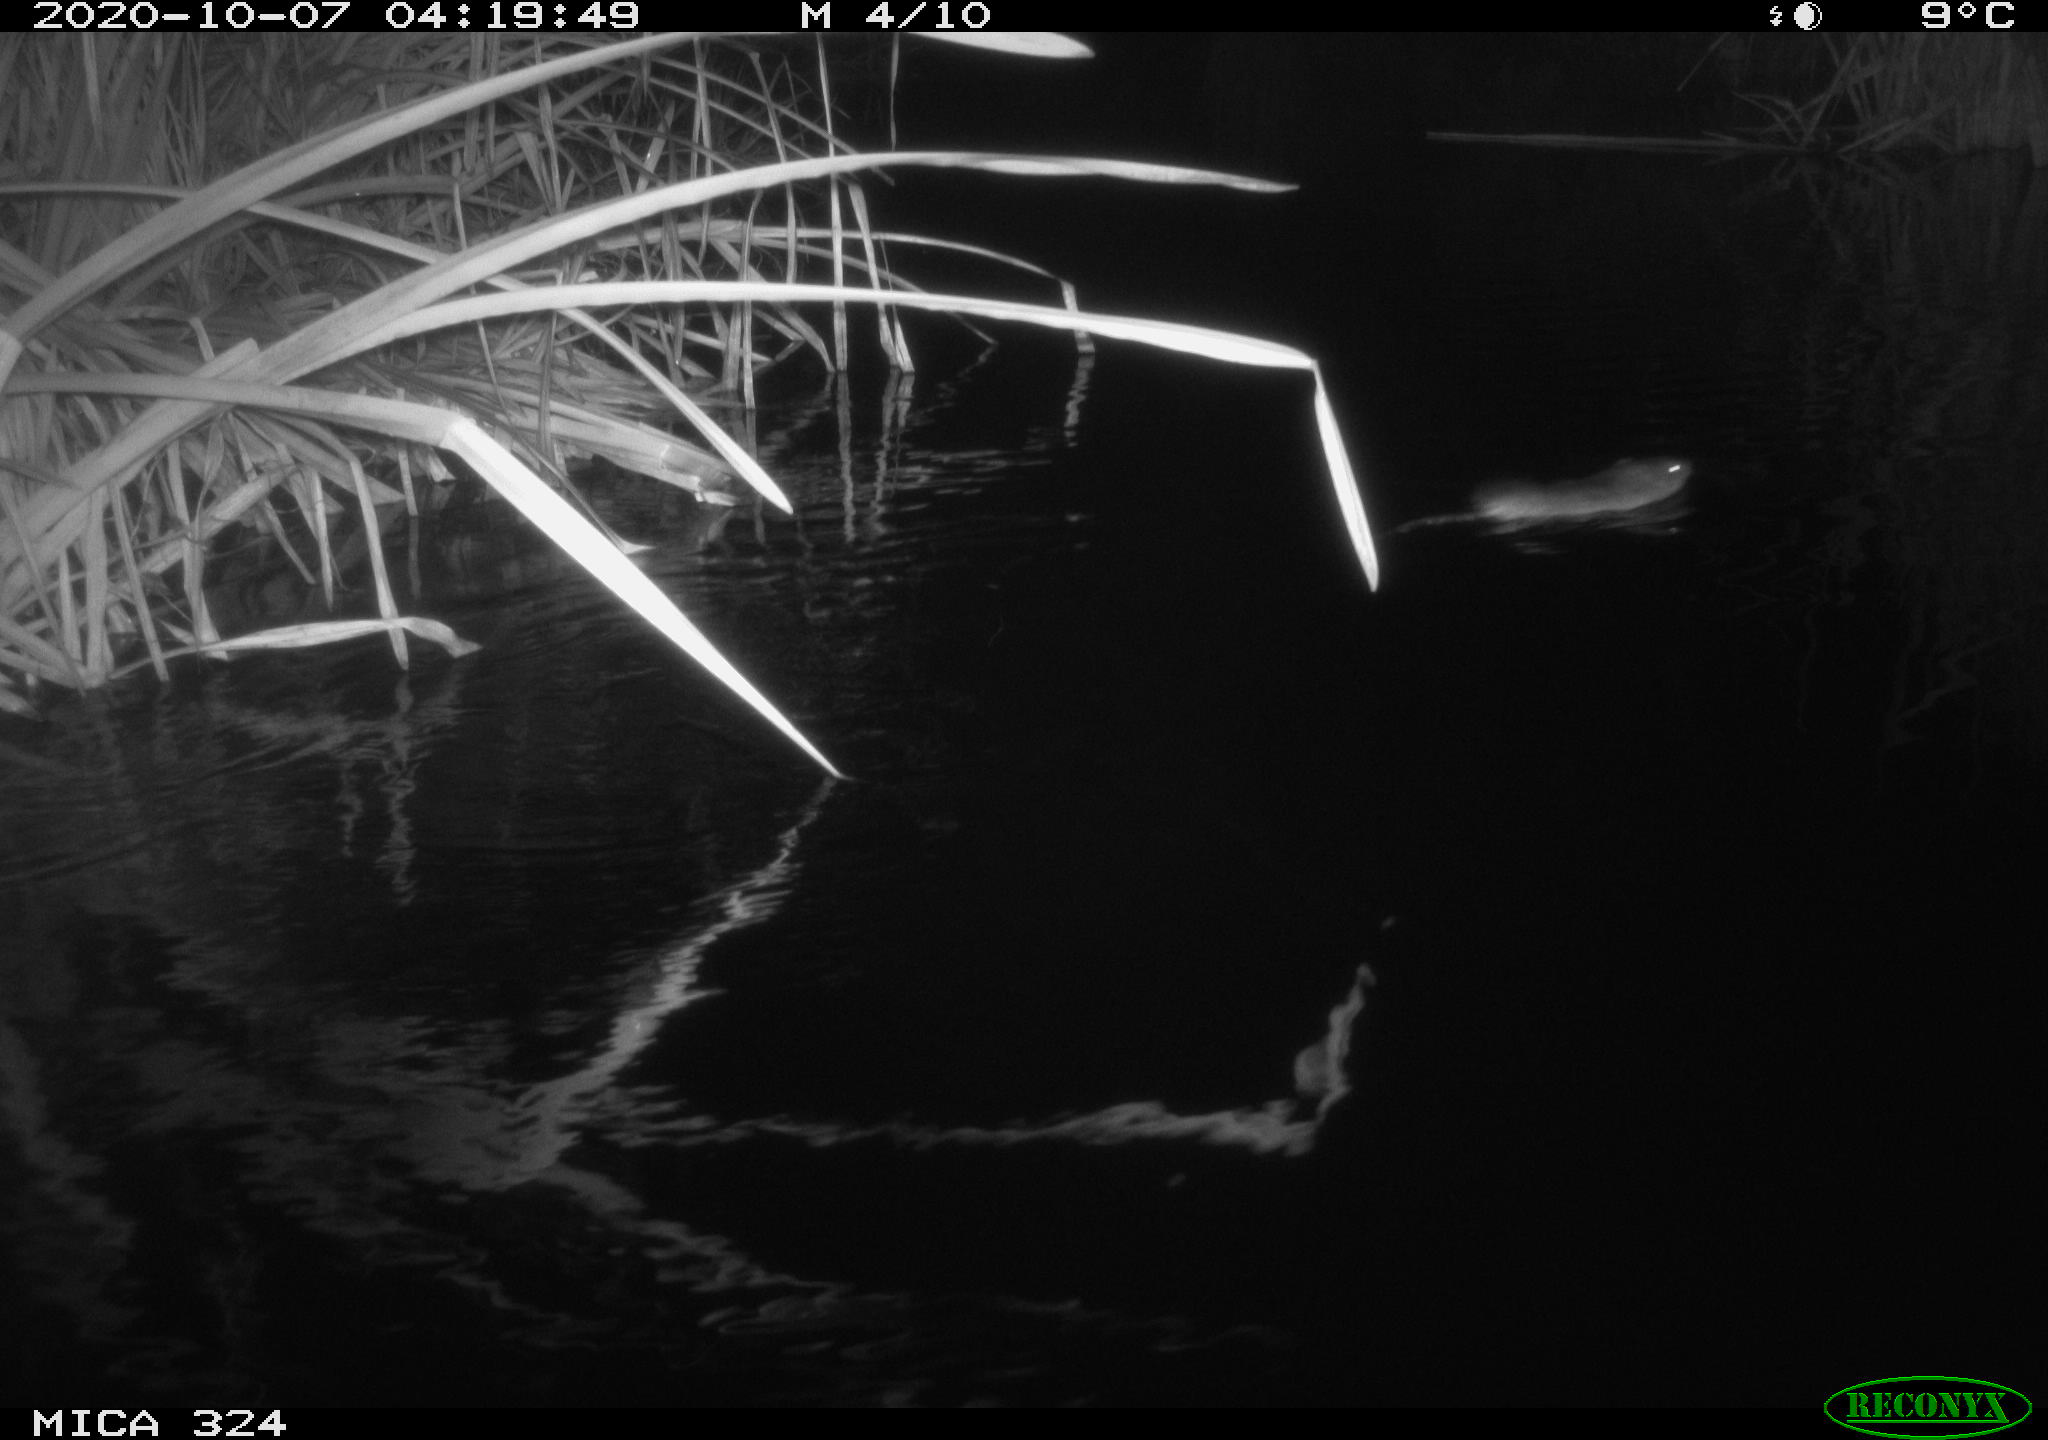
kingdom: Animalia
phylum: Chordata
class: Mammalia
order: Rodentia
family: Cricetidae
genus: Ondatra
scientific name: Ondatra zibethicus
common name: Muskrat
